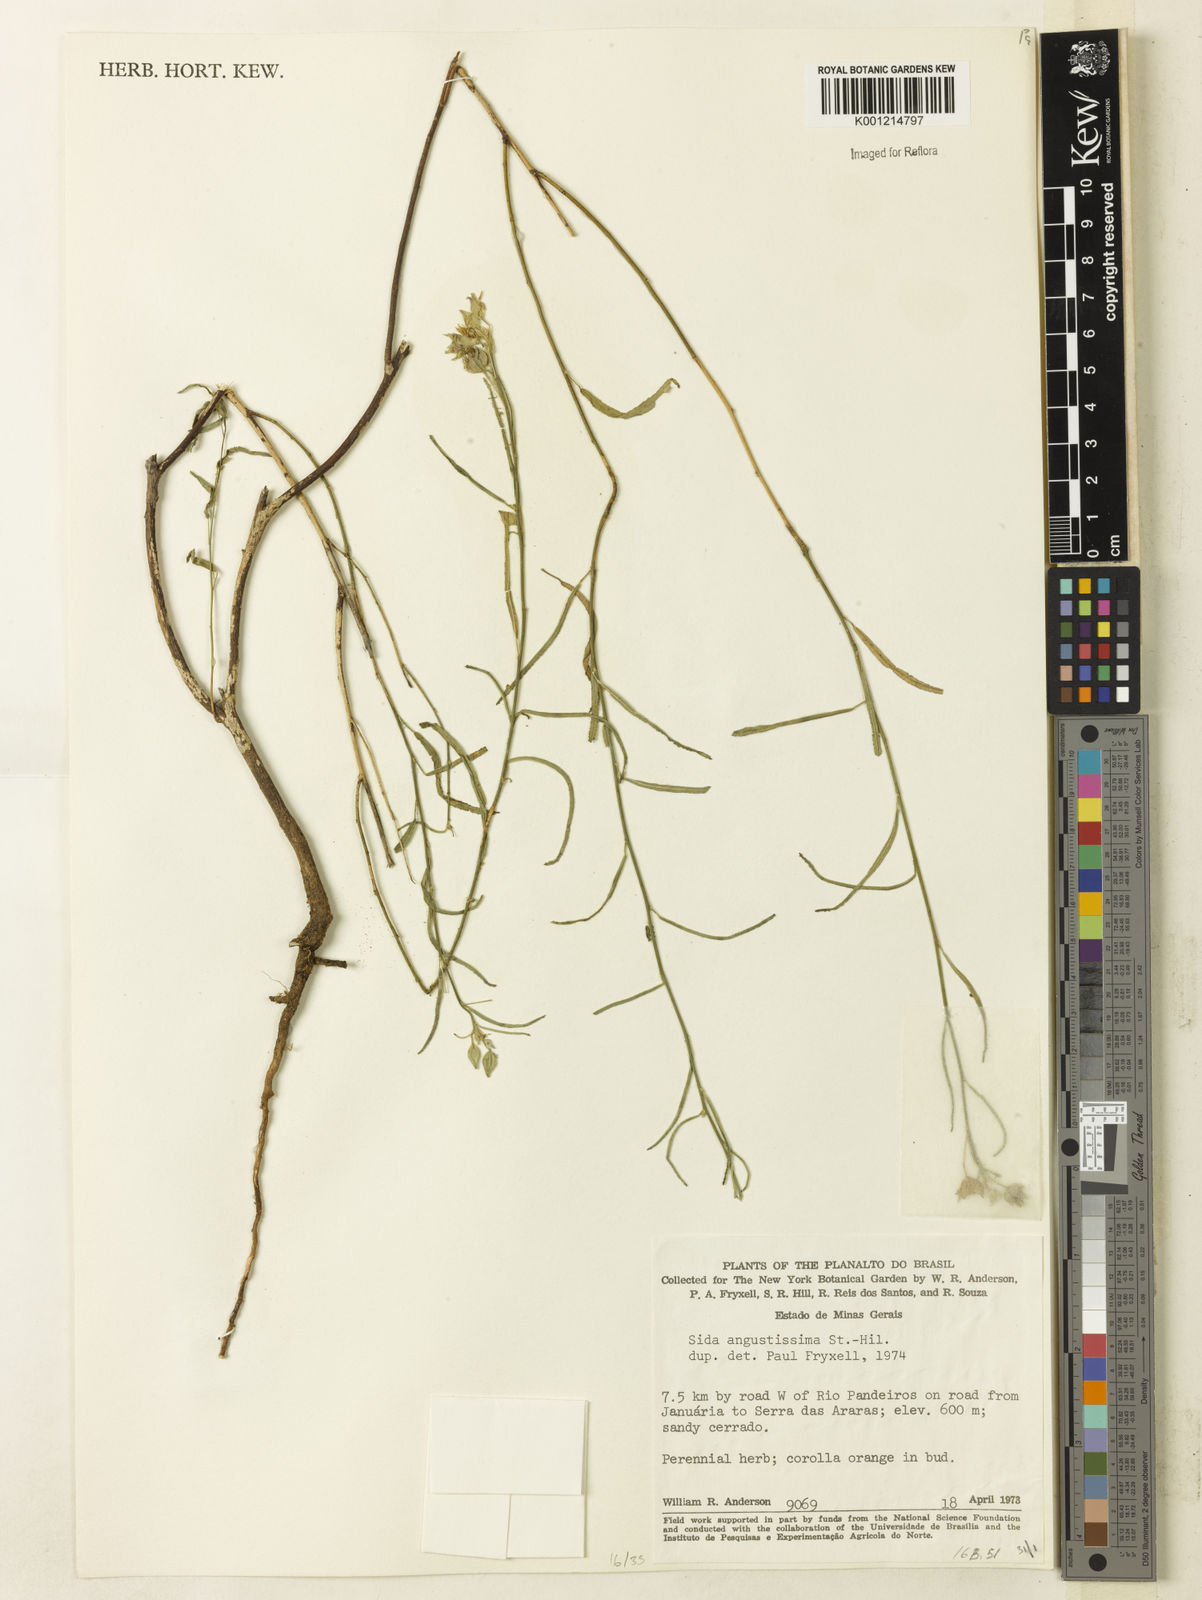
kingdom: Plantae
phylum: Tracheophyta
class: Magnoliopsida
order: Malvales
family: Malvaceae
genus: Sida
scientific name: Sida angustissima
